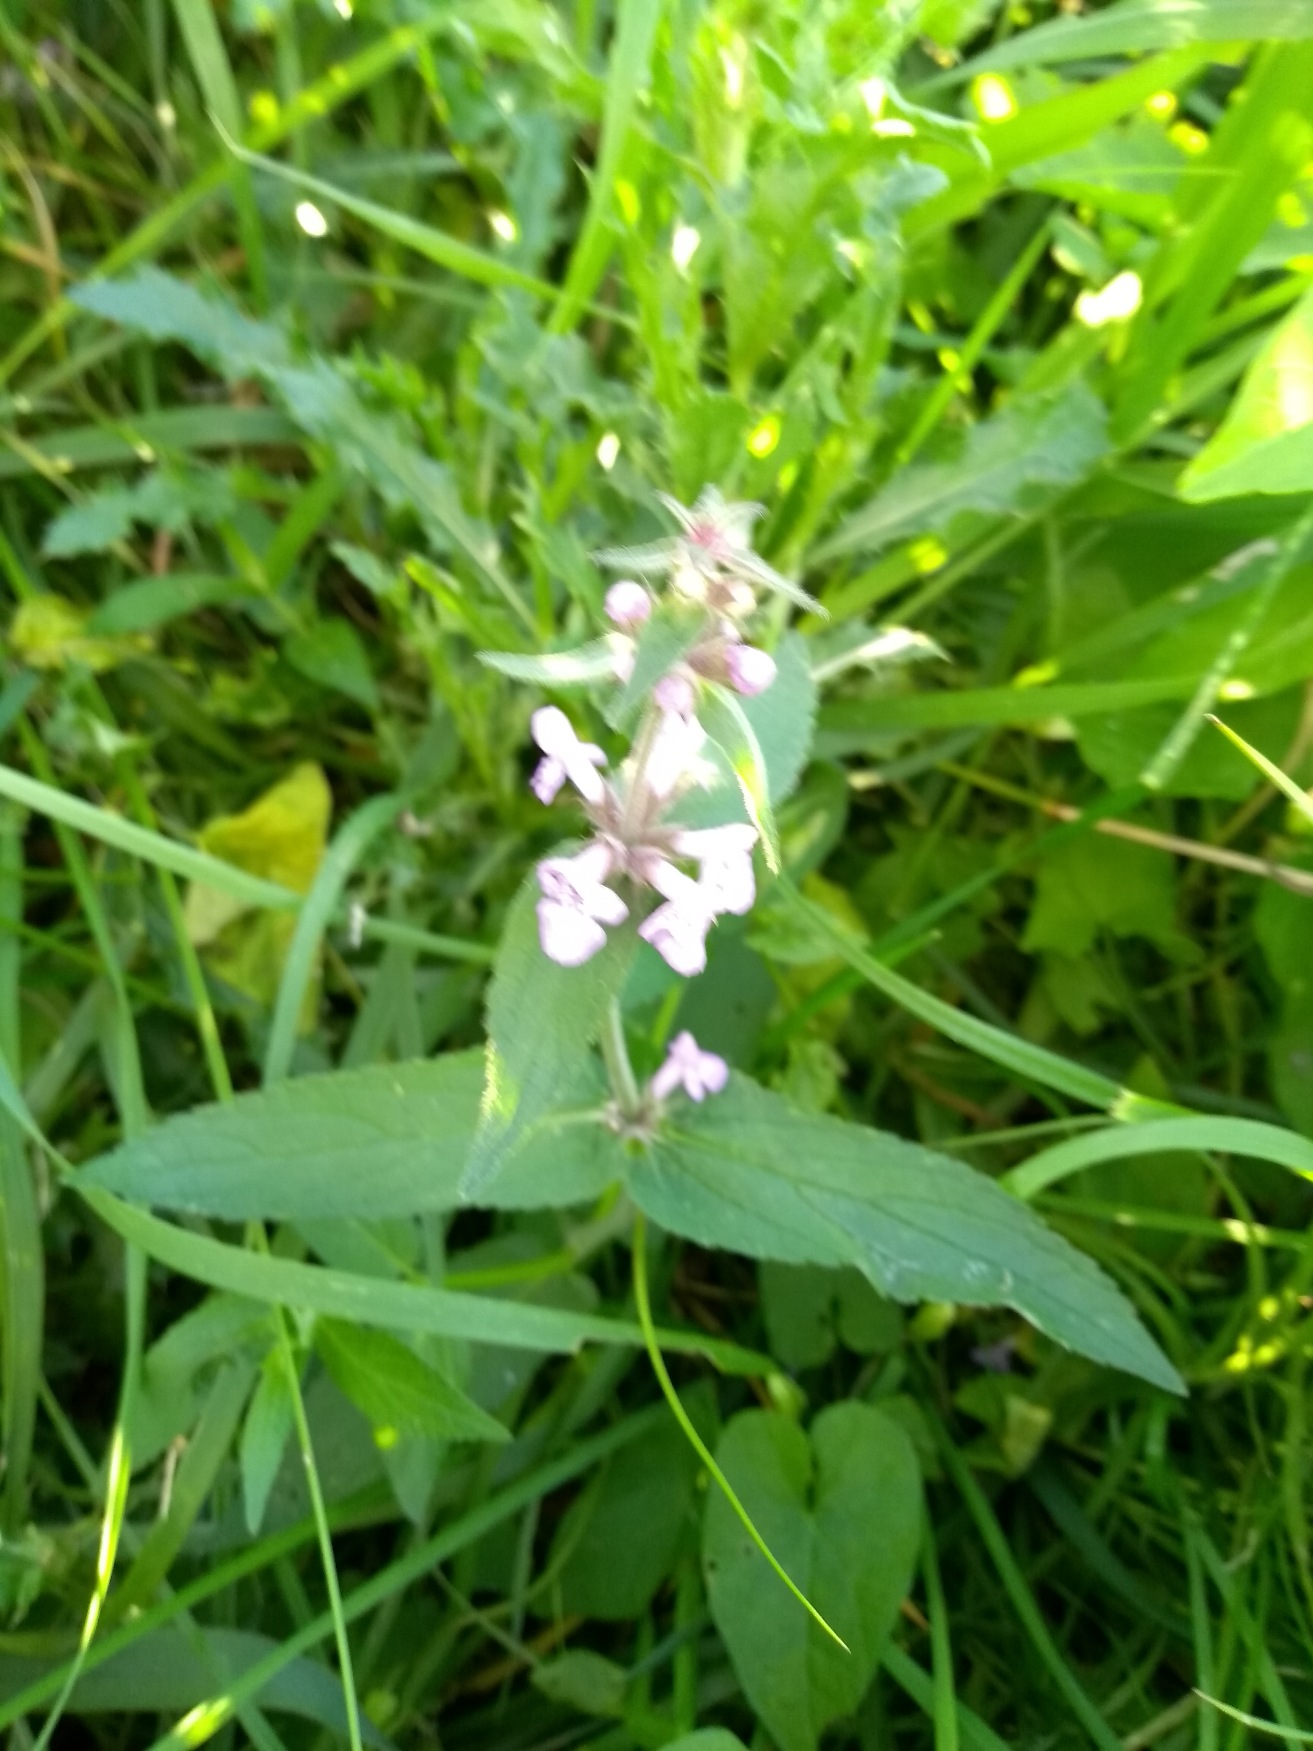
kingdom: Plantae
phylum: Tracheophyta
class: Magnoliopsida
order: Lamiales
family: Lamiaceae
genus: Stachys
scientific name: Stachys palustris
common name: Kær-galtetand
